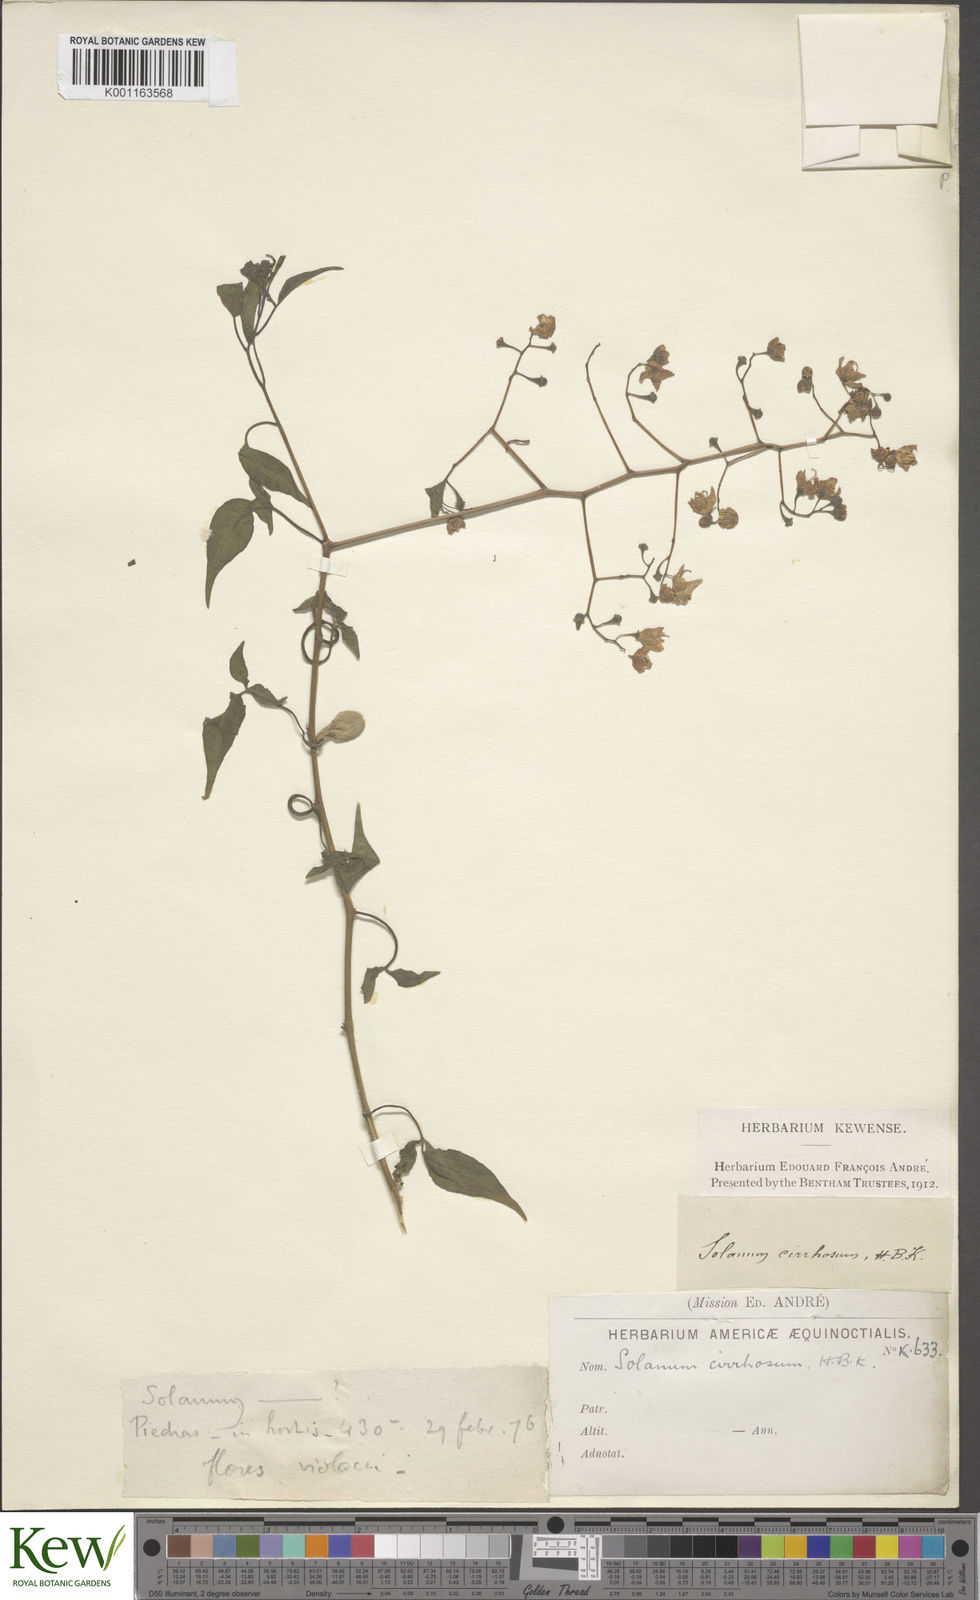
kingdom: Plantae
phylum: Tracheophyta
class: Magnoliopsida
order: Solanales
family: Solanaceae
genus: Solanum
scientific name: Solanum seaforthianum
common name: Brazilian nightshade
